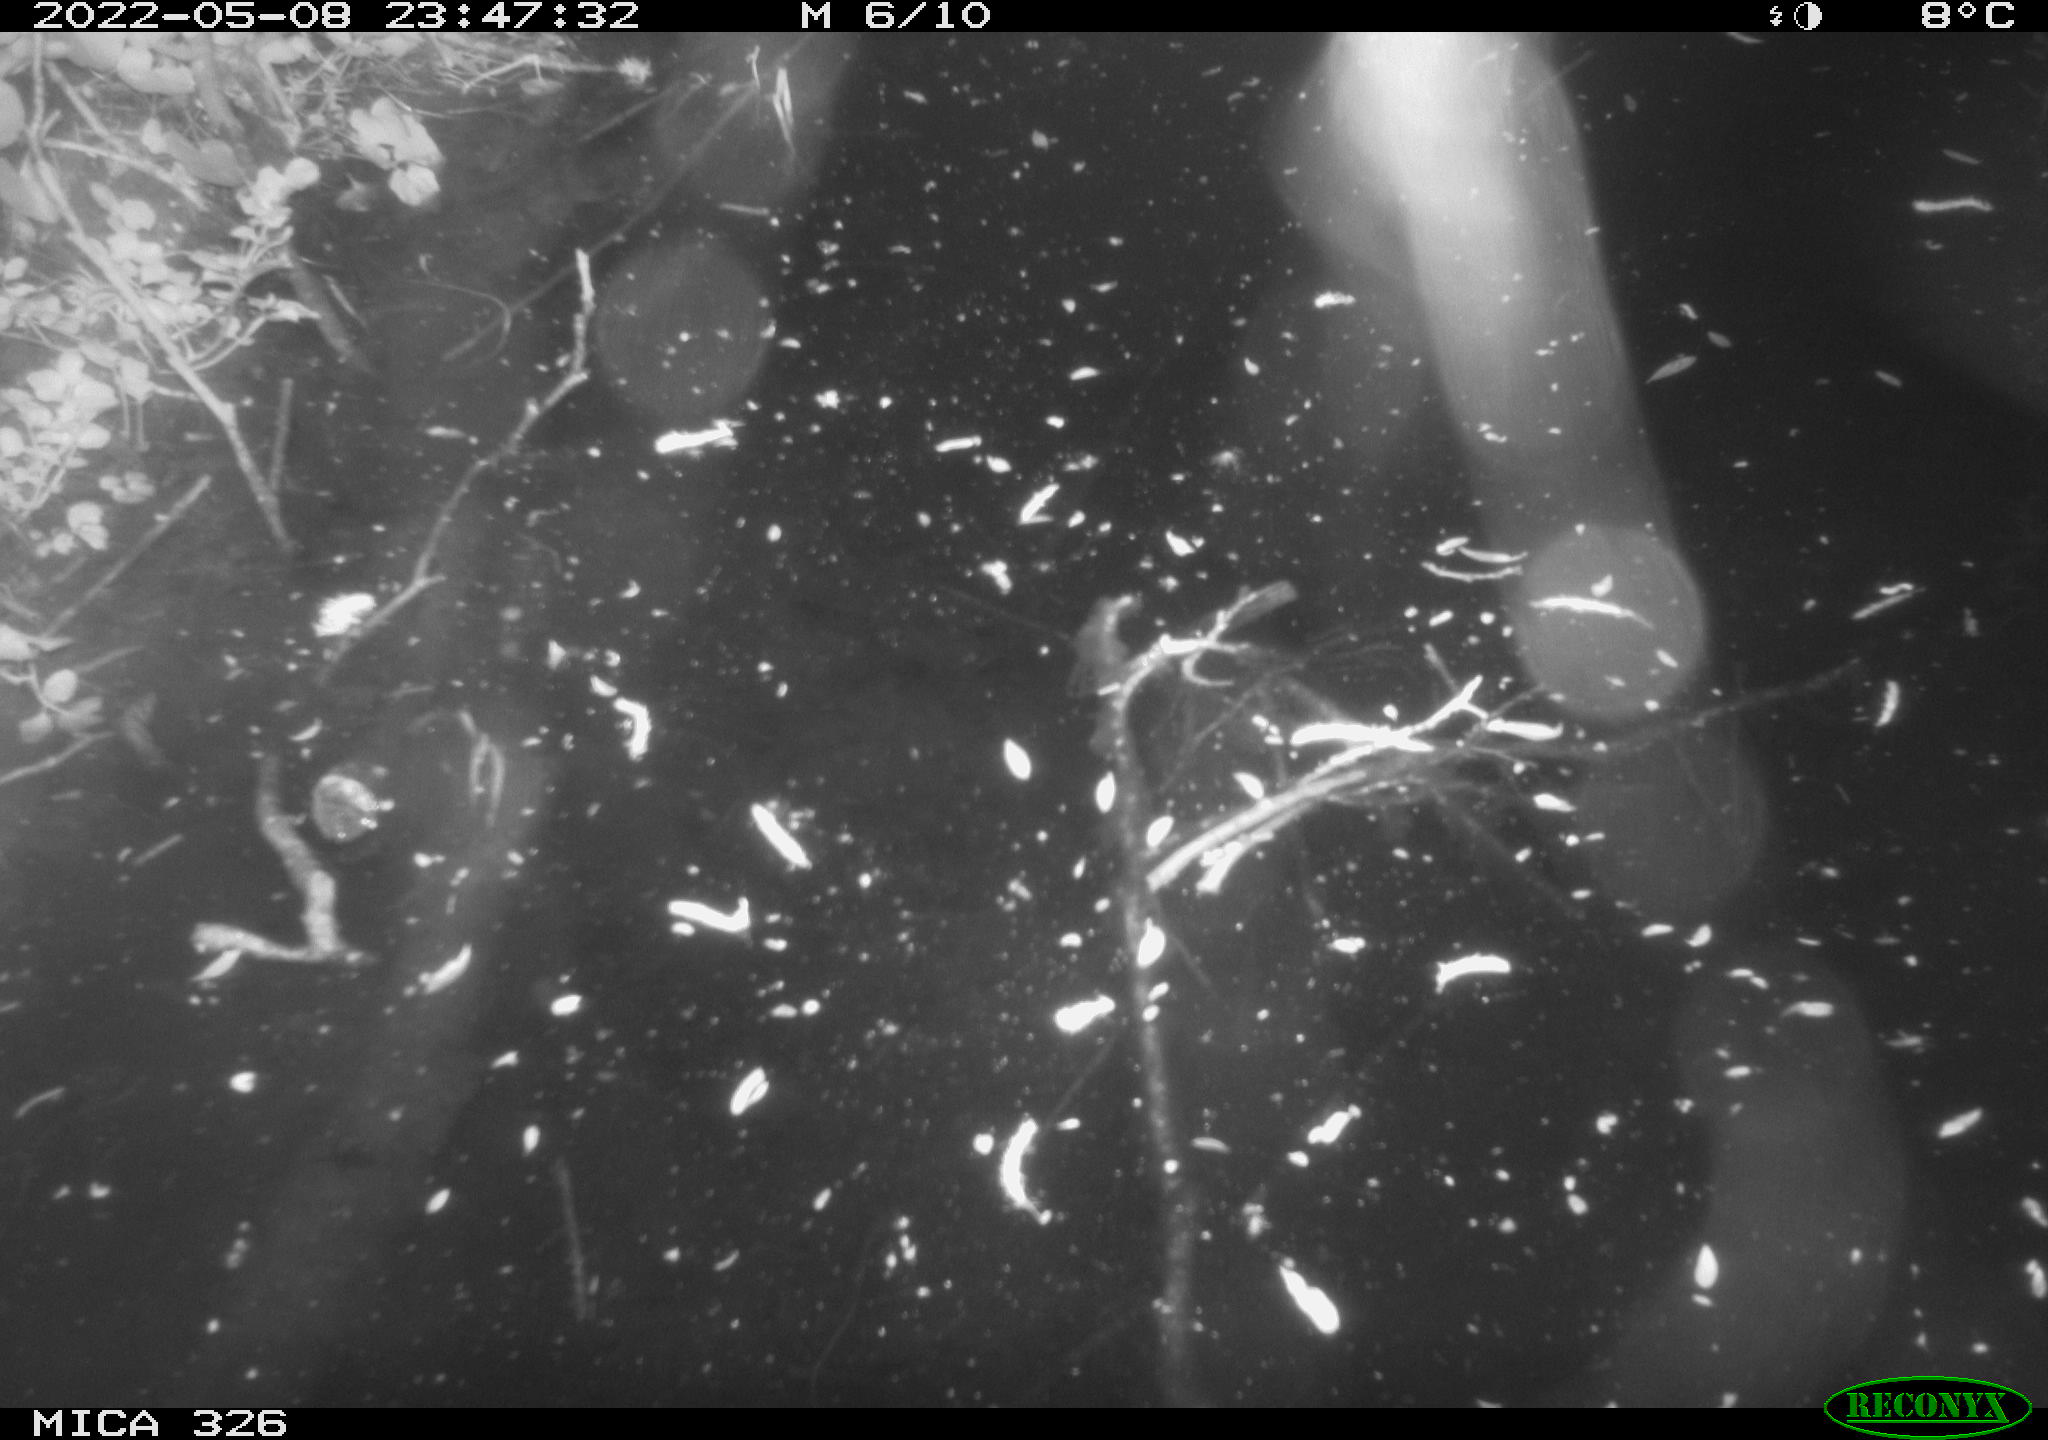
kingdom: Animalia
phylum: Chordata
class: Mammalia
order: Rodentia
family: Cricetidae
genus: Ondatra
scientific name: Ondatra zibethicus
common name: Muskrat
